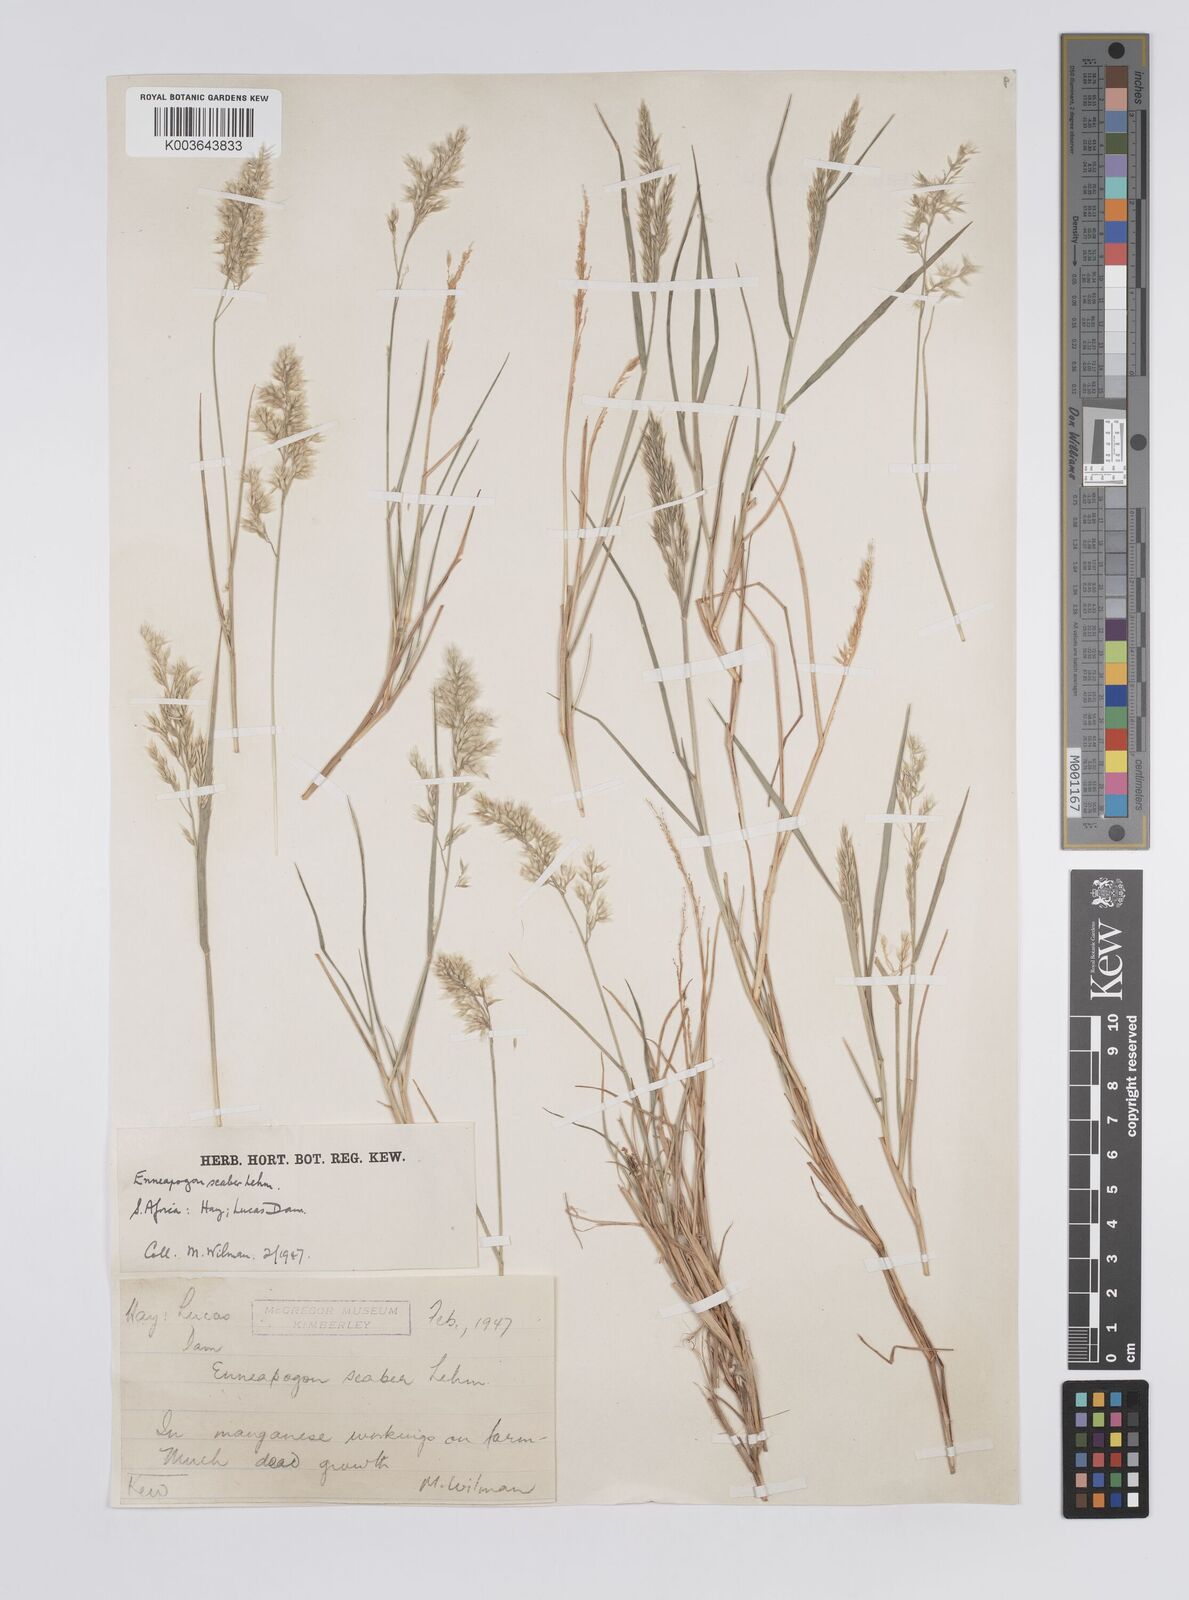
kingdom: Plantae
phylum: Tracheophyta
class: Liliopsida
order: Poales
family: Poaceae
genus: Enneapogon
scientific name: Enneapogon scaber
